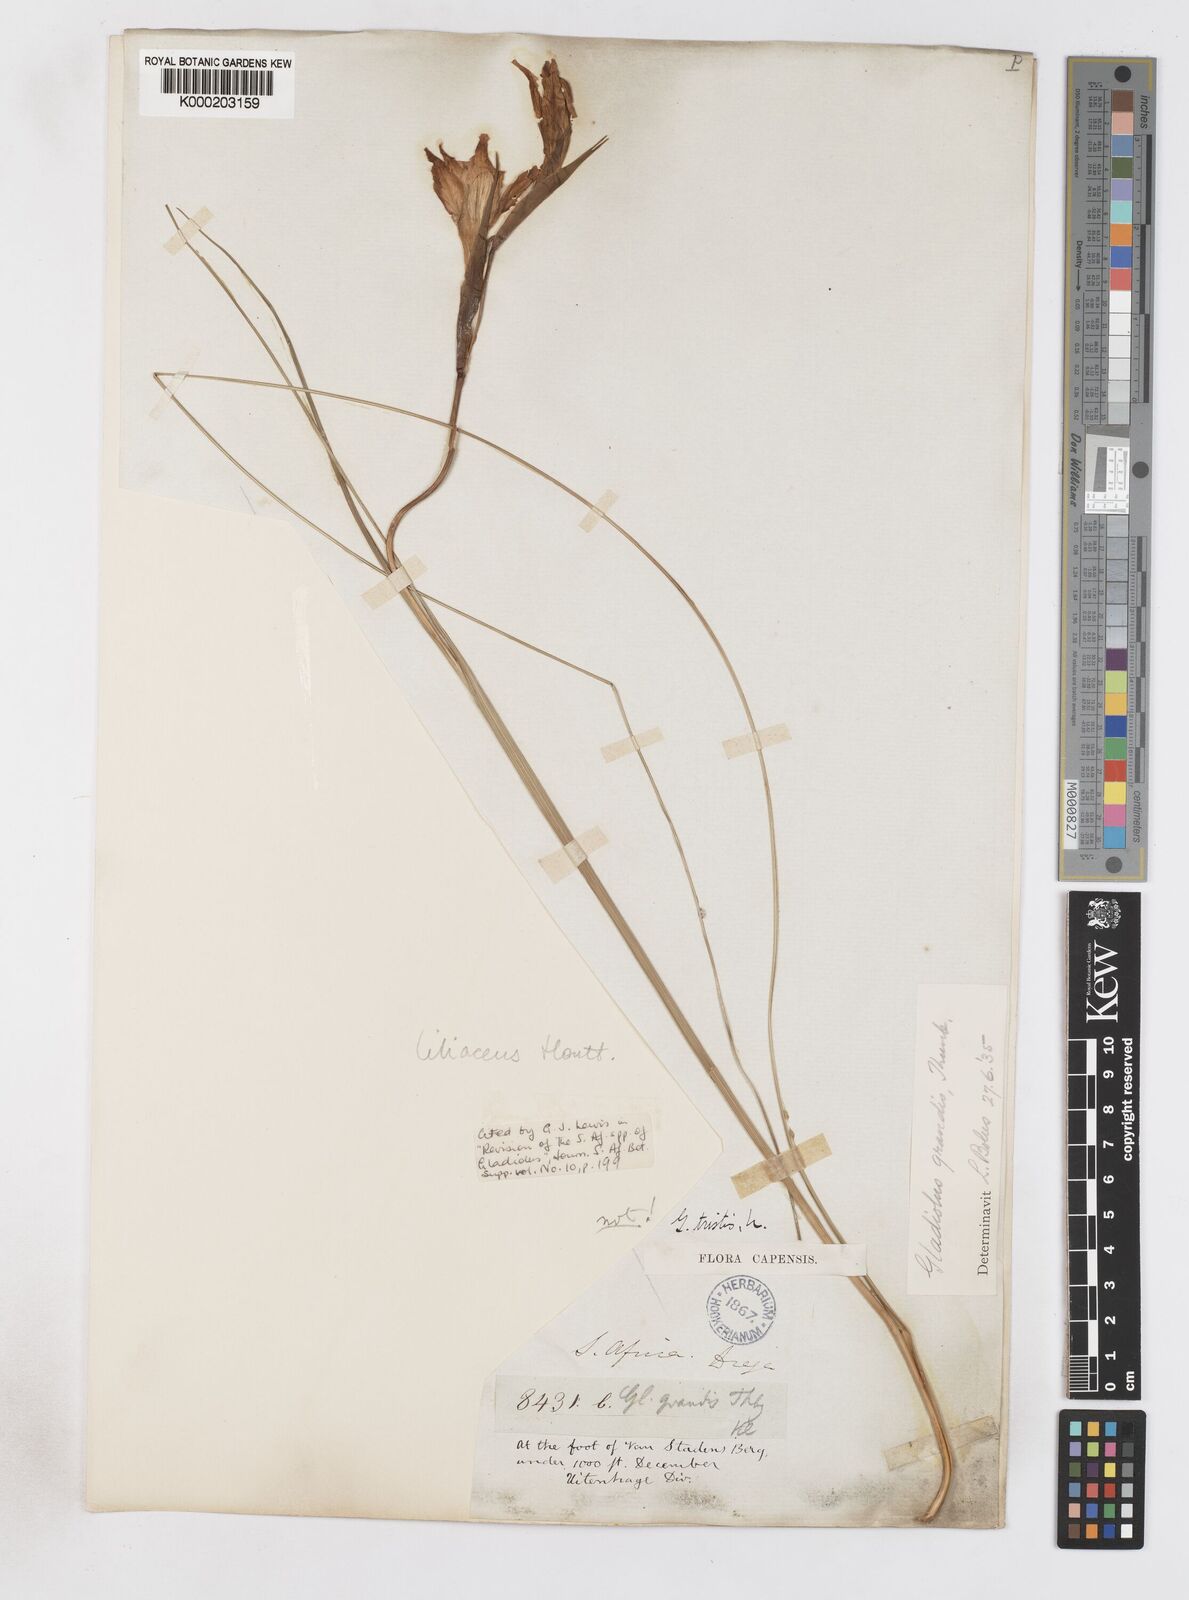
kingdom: Plantae
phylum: Tracheophyta
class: Liliopsida
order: Asparagales
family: Iridaceae
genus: Gladiolus
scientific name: Gladiolus liliaceus
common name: Large brown afrikaner
